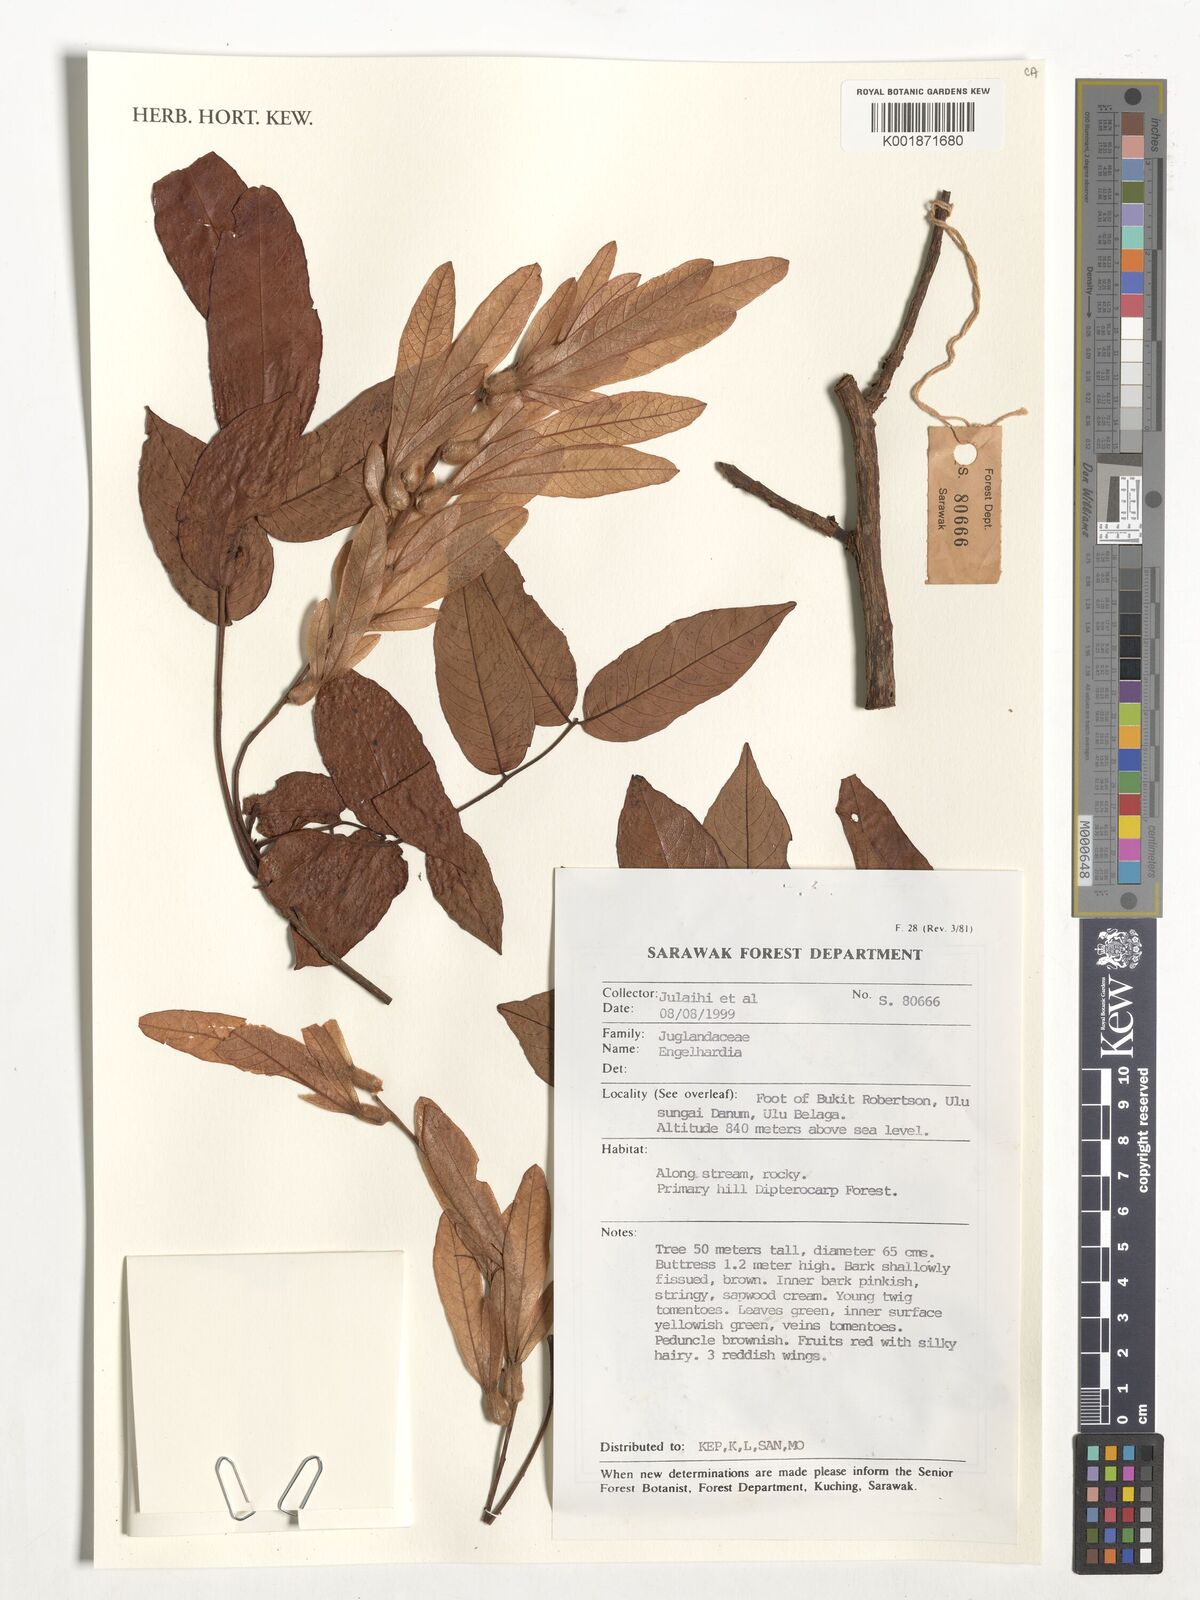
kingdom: Plantae
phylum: Tracheophyta
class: Magnoliopsida
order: Fagales
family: Juglandaceae
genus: Engelhardia
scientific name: Engelhardia
